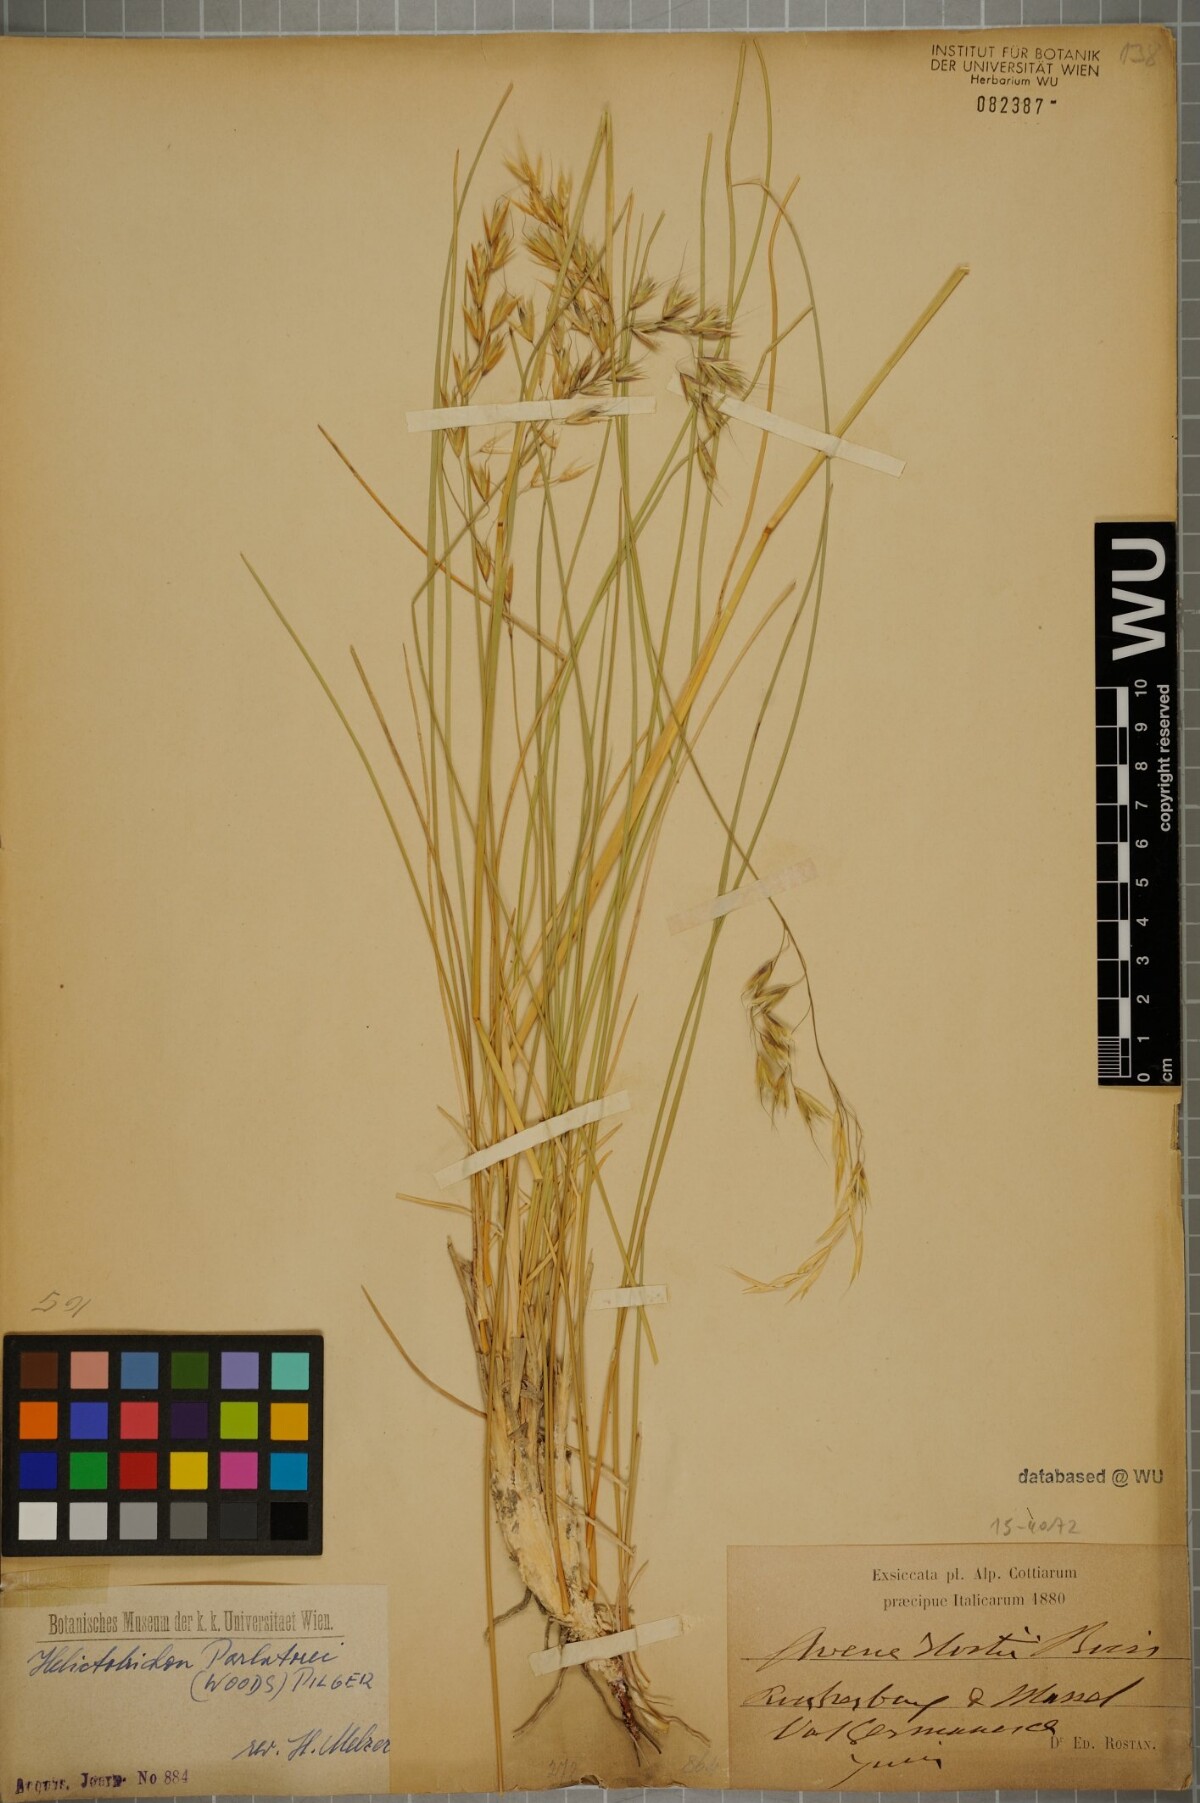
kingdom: Plantae
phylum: Tracheophyta
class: Liliopsida
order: Poales
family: Poaceae
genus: Helictotrichon
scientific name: Helictotrichon parlatorei
